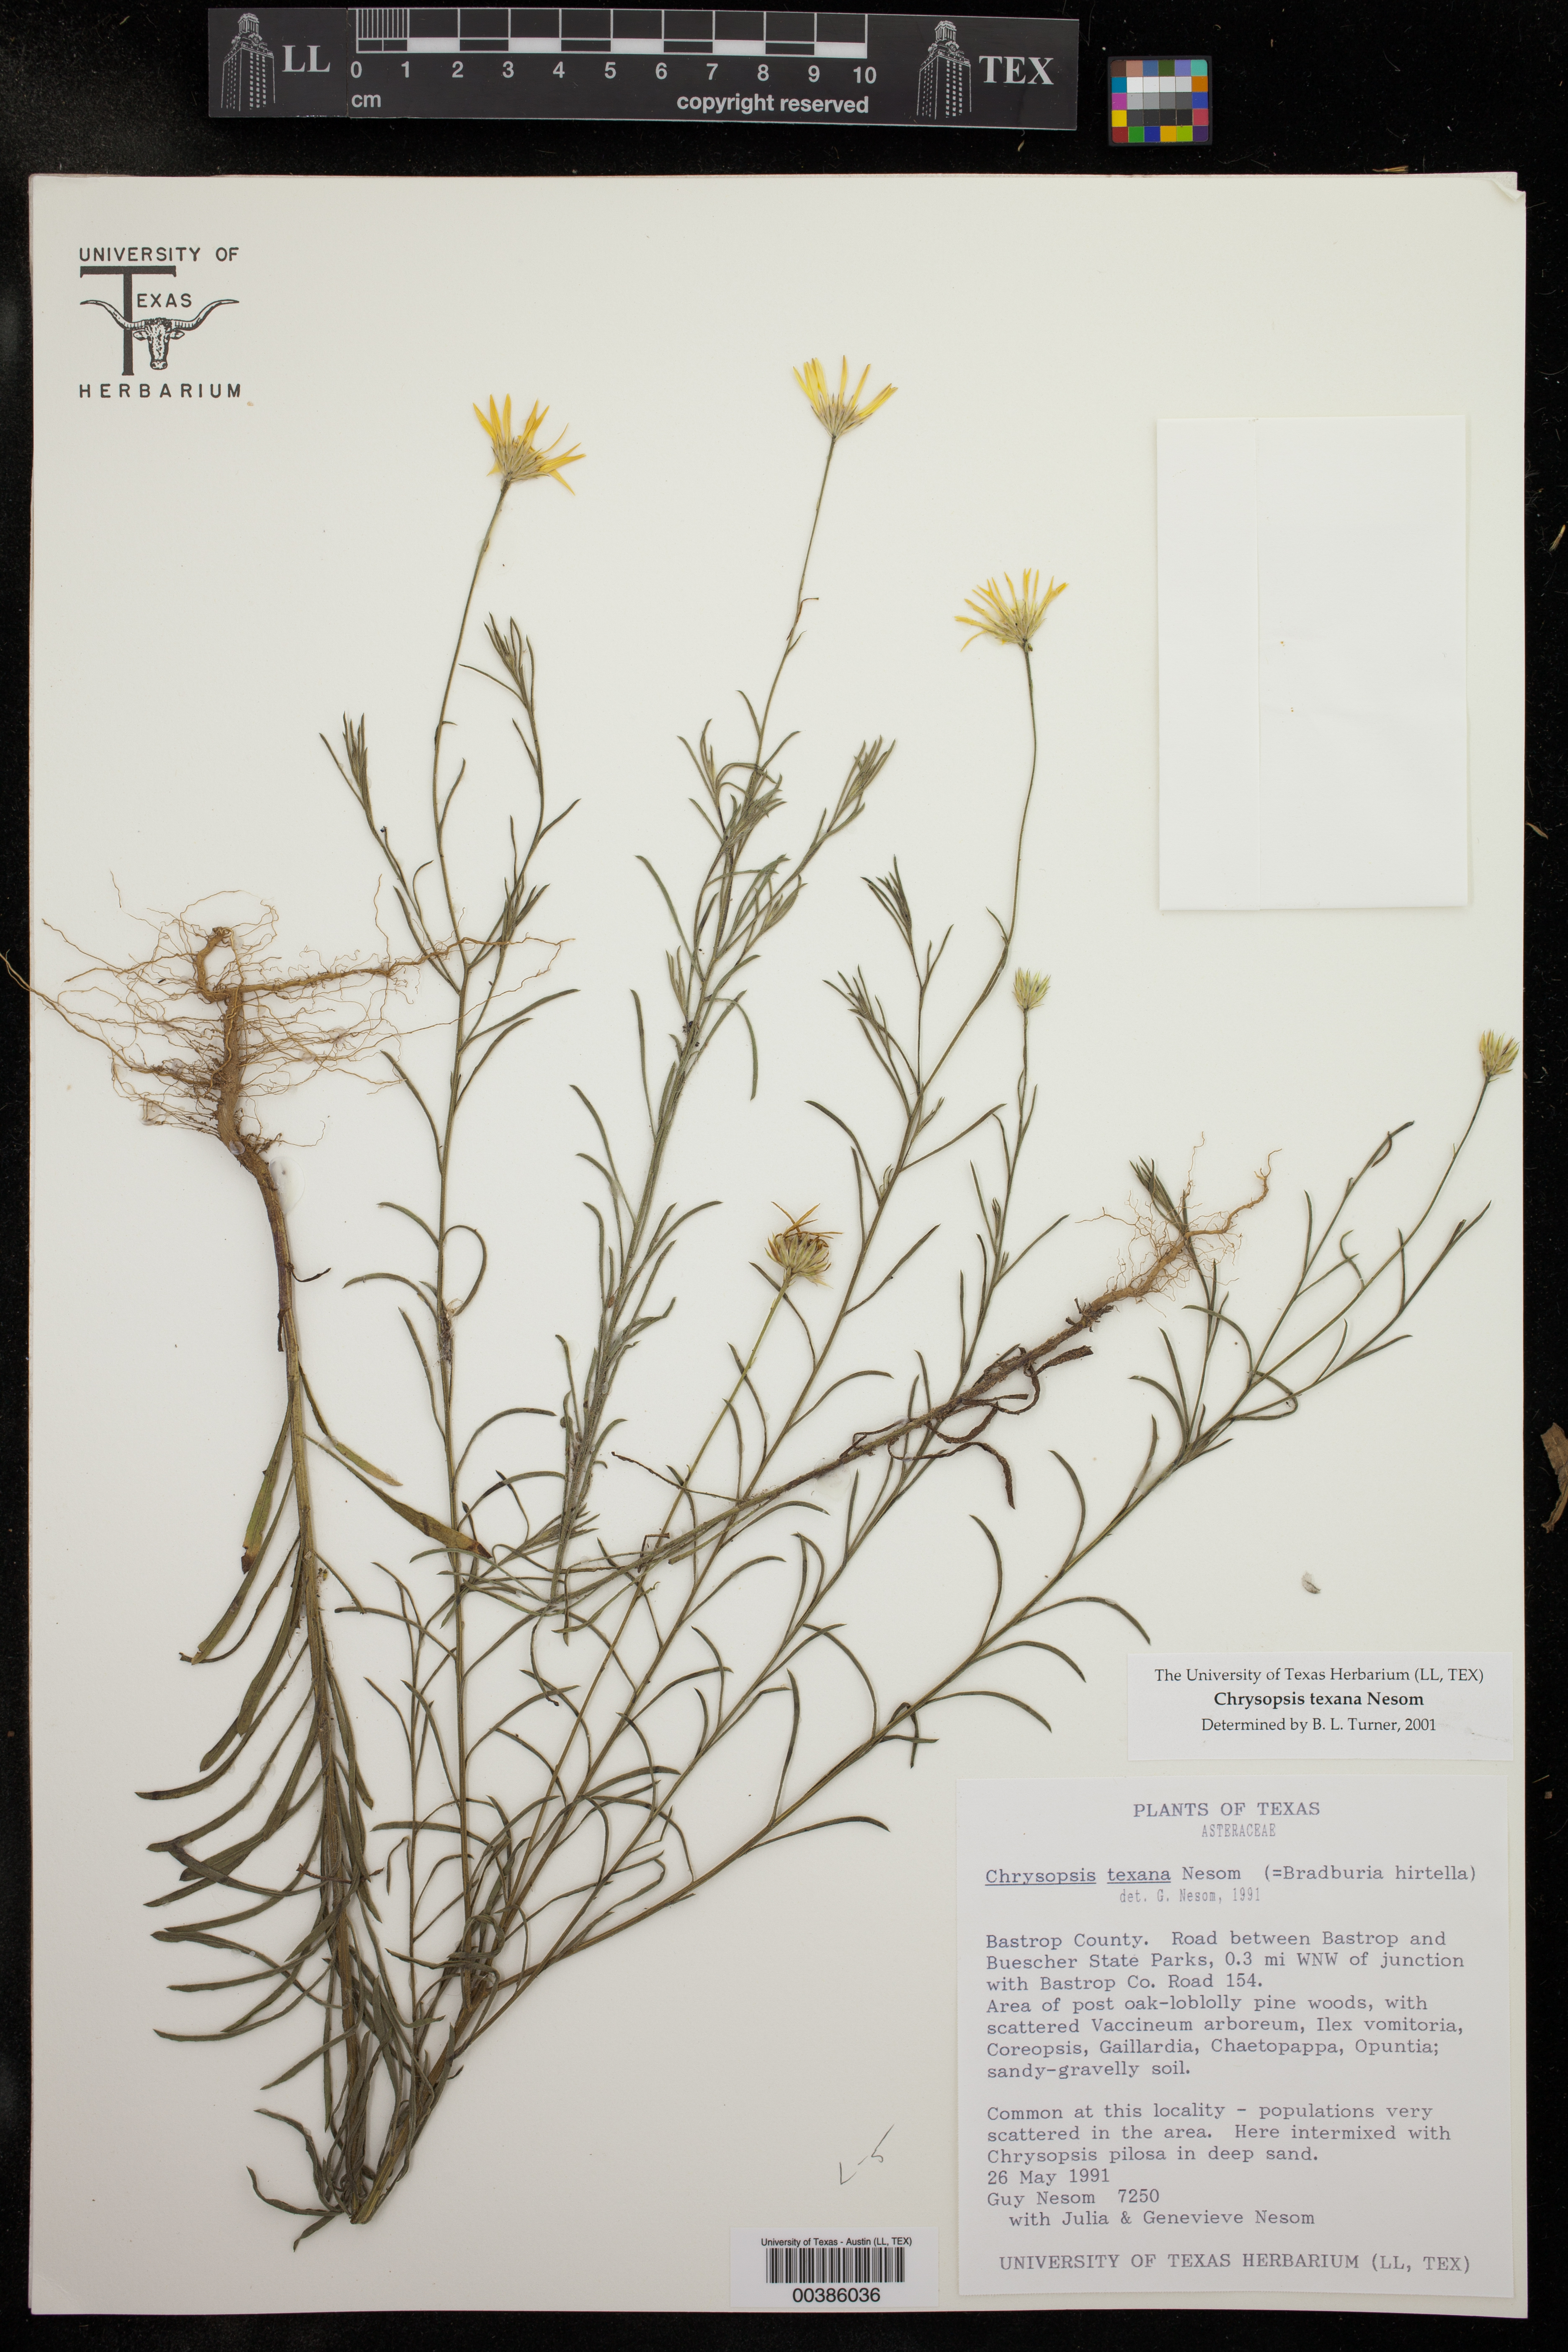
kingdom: Plantae
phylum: Tracheophyta
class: Magnoliopsida
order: Asterales
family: Asteraceae
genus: Bradburia
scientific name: Bradburia hirtella
